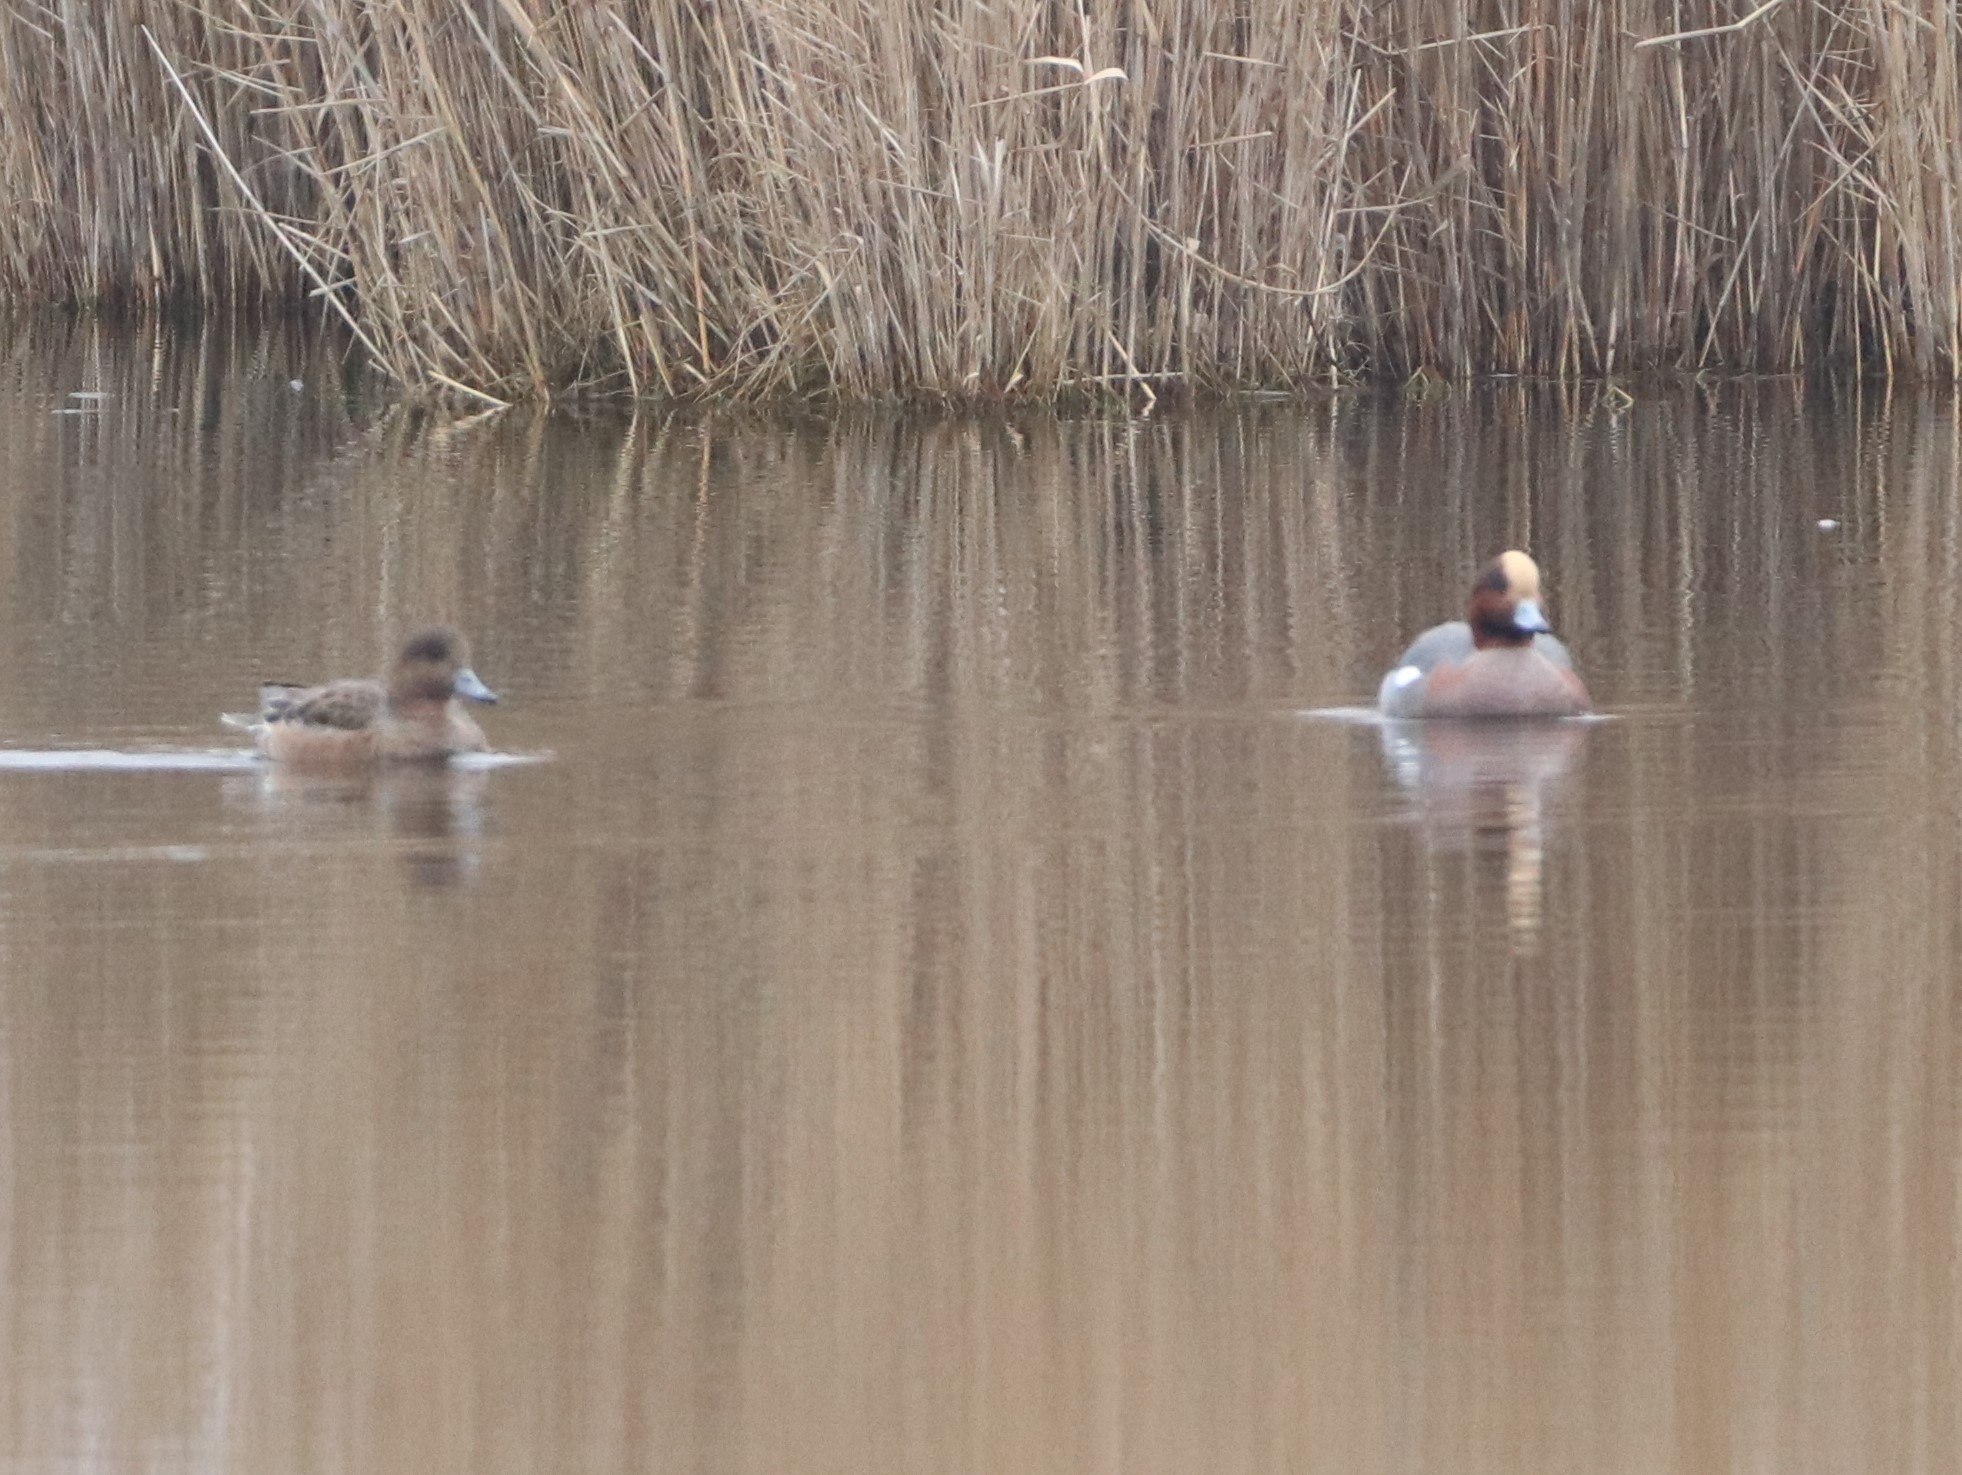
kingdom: Animalia
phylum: Chordata
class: Aves
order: Anseriformes
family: Anatidae
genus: Mareca
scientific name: Mareca penelope
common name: Pibeand
